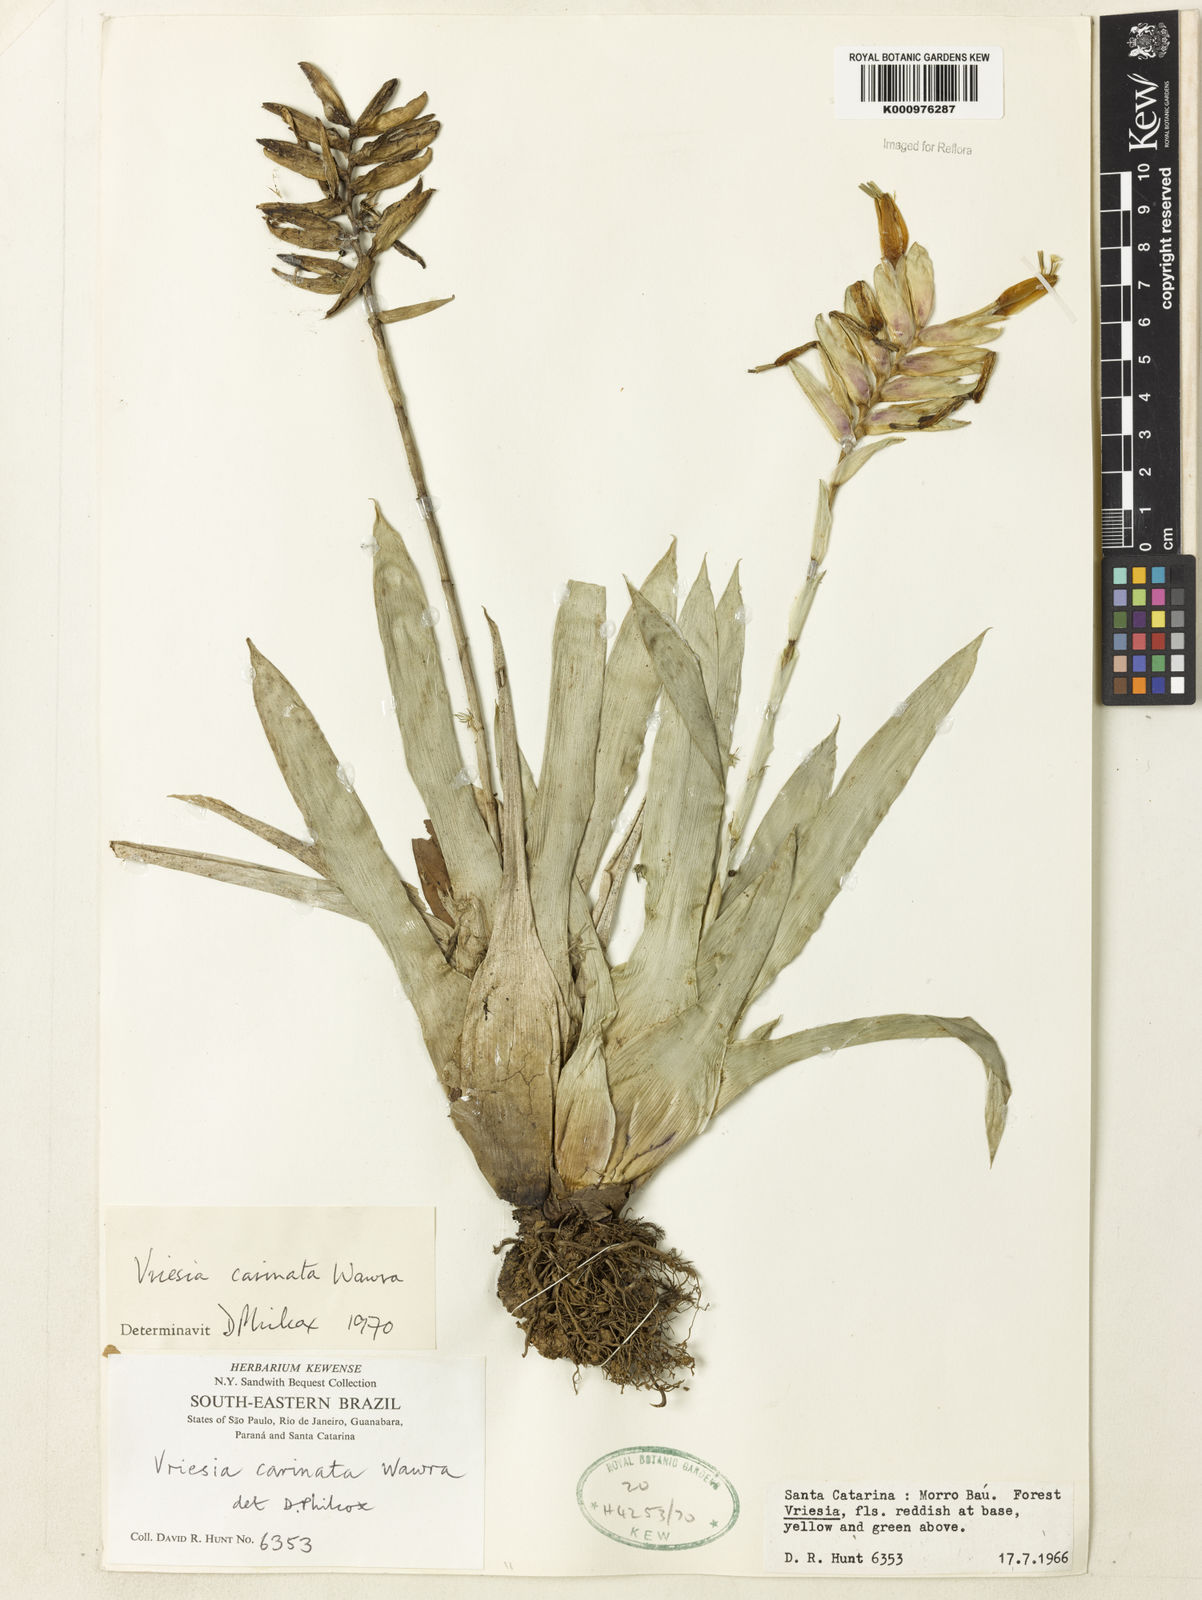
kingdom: Plantae
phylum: Tracheophyta
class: Liliopsida
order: Poales
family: Bromeliaceae
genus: Vriesea
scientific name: Vriesea carinata
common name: Lobster-claws
